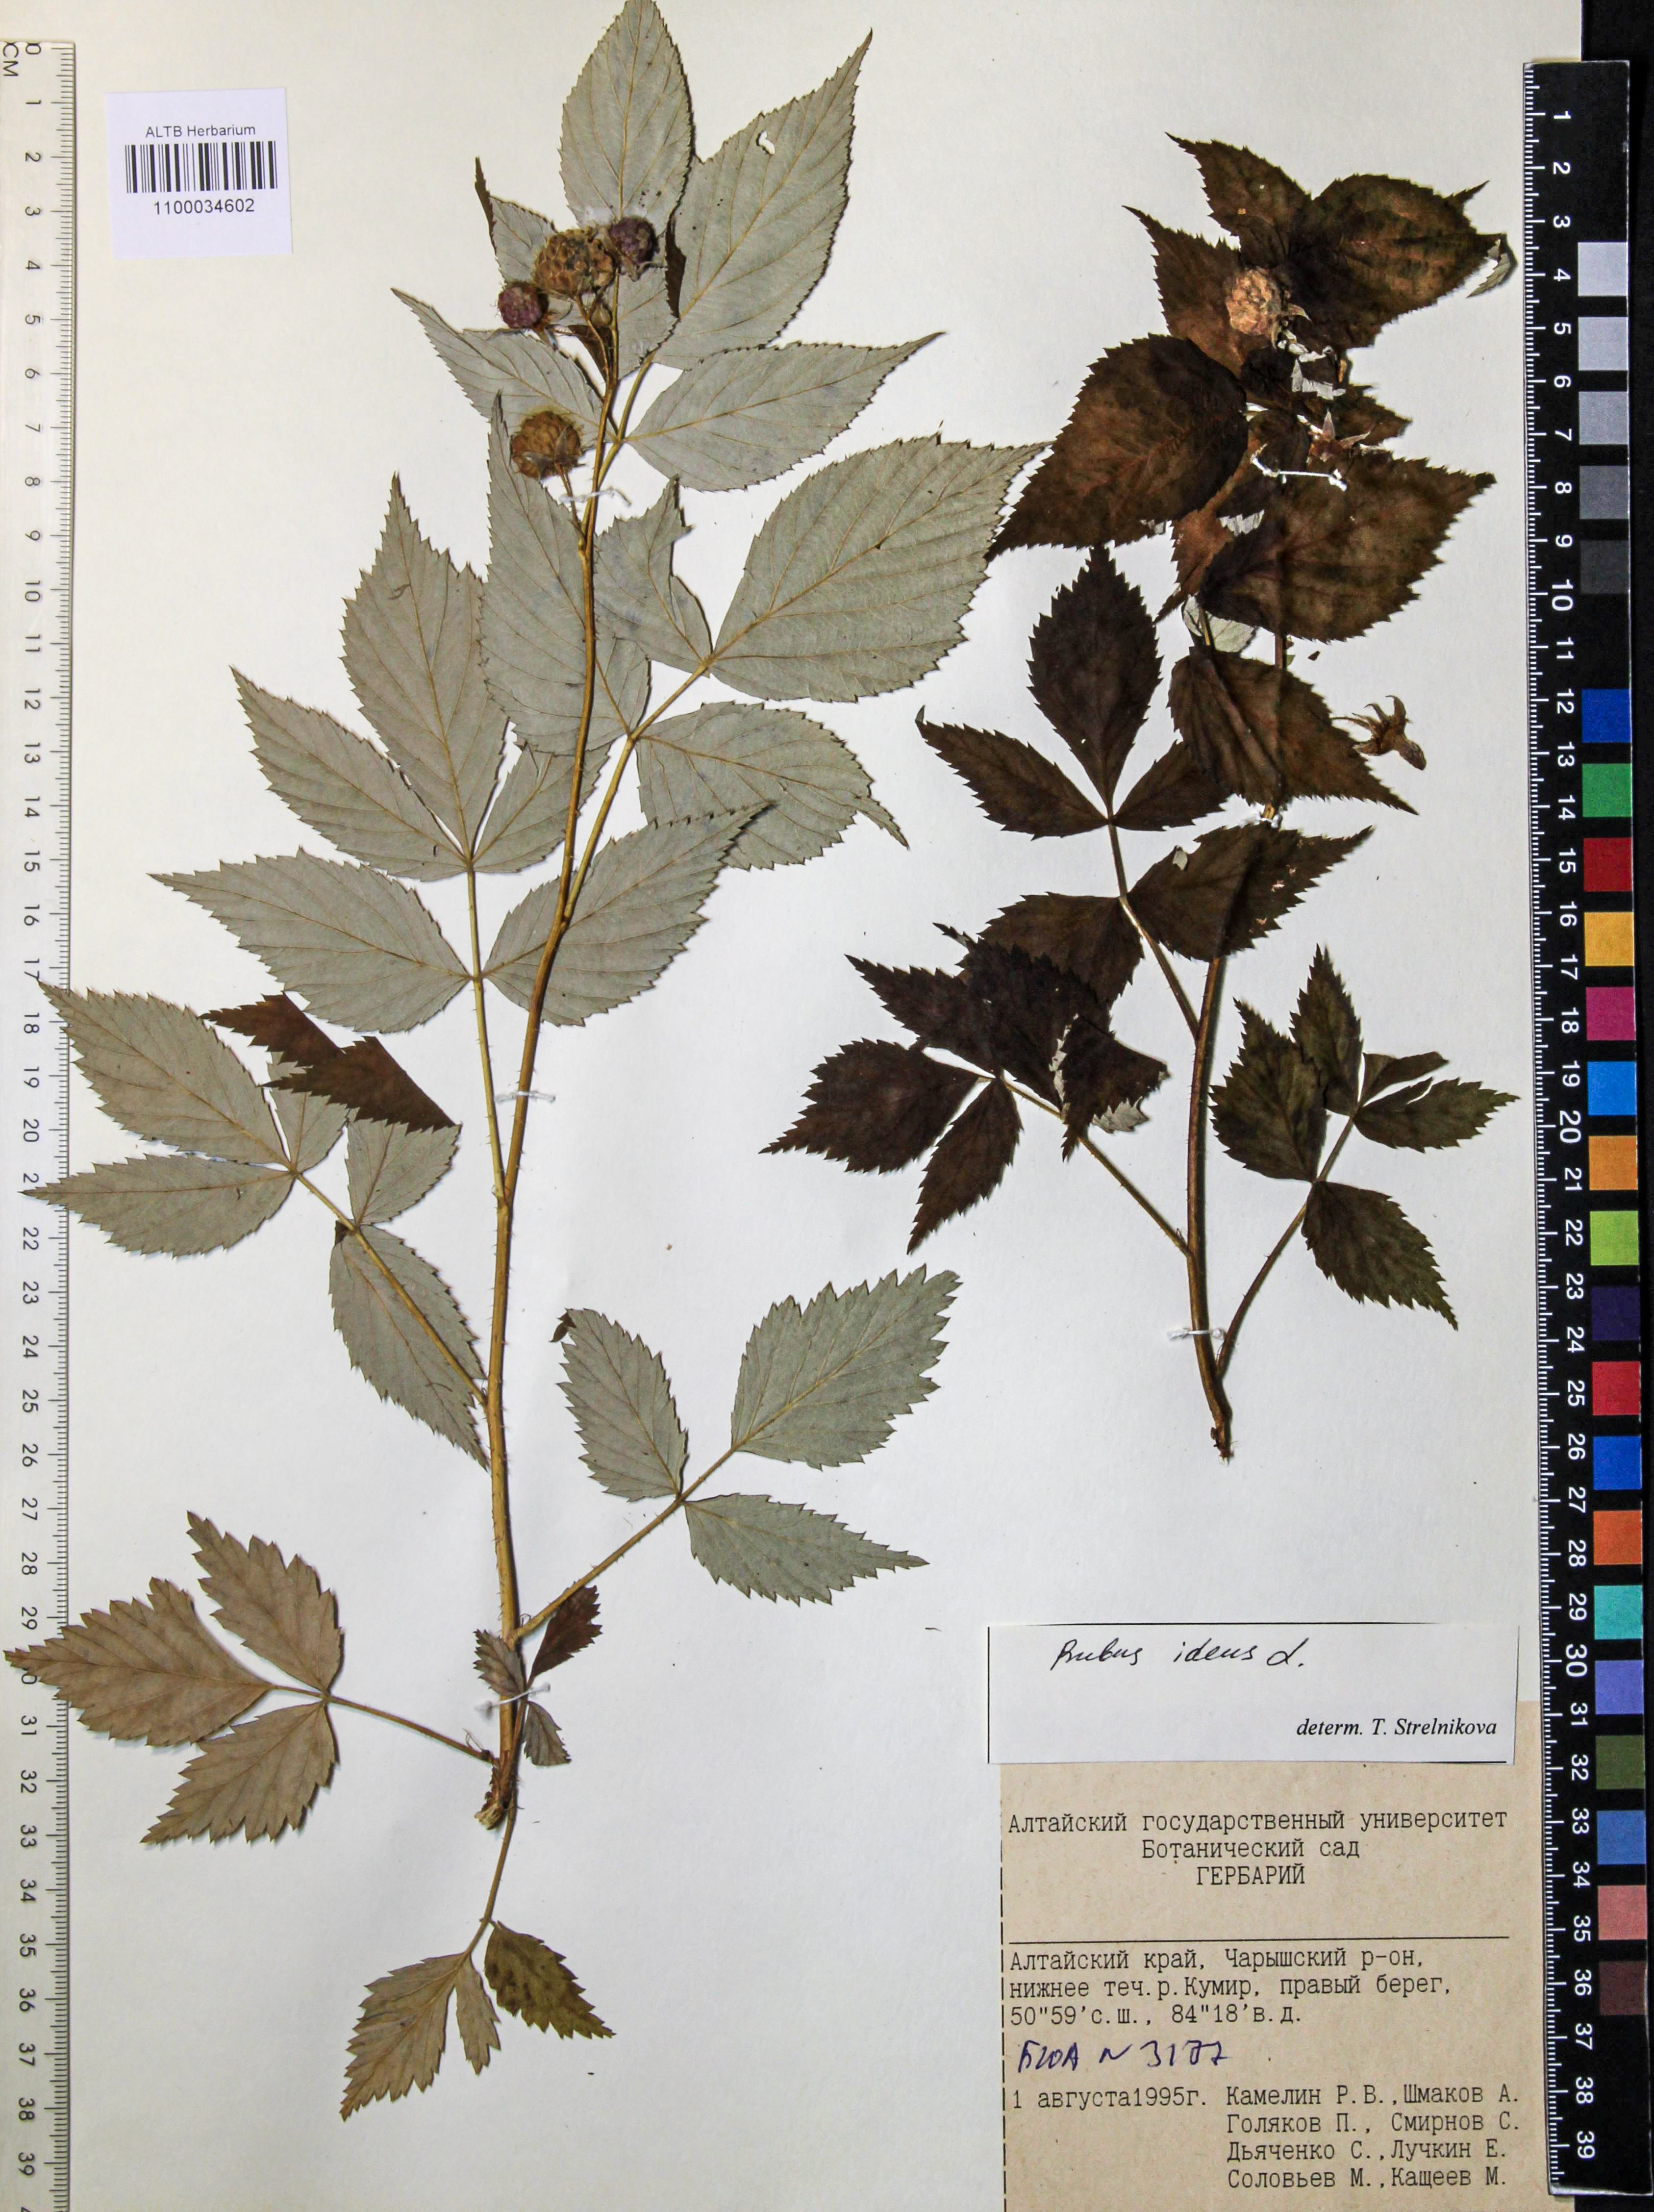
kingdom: Plantae
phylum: Tracheophyta
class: Magnoliopsida
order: Rosales
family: Rosaceae
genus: Rubus
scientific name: Rubus idaeus
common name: Raspberry
